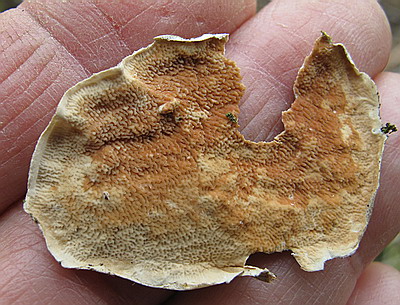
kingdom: Fungi
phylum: Basidiomycota
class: Agaricomycetes
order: Polyporales
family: Irpicaceae
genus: Byssomerulius
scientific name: Byssomerulius corium
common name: læder-åresvamp
